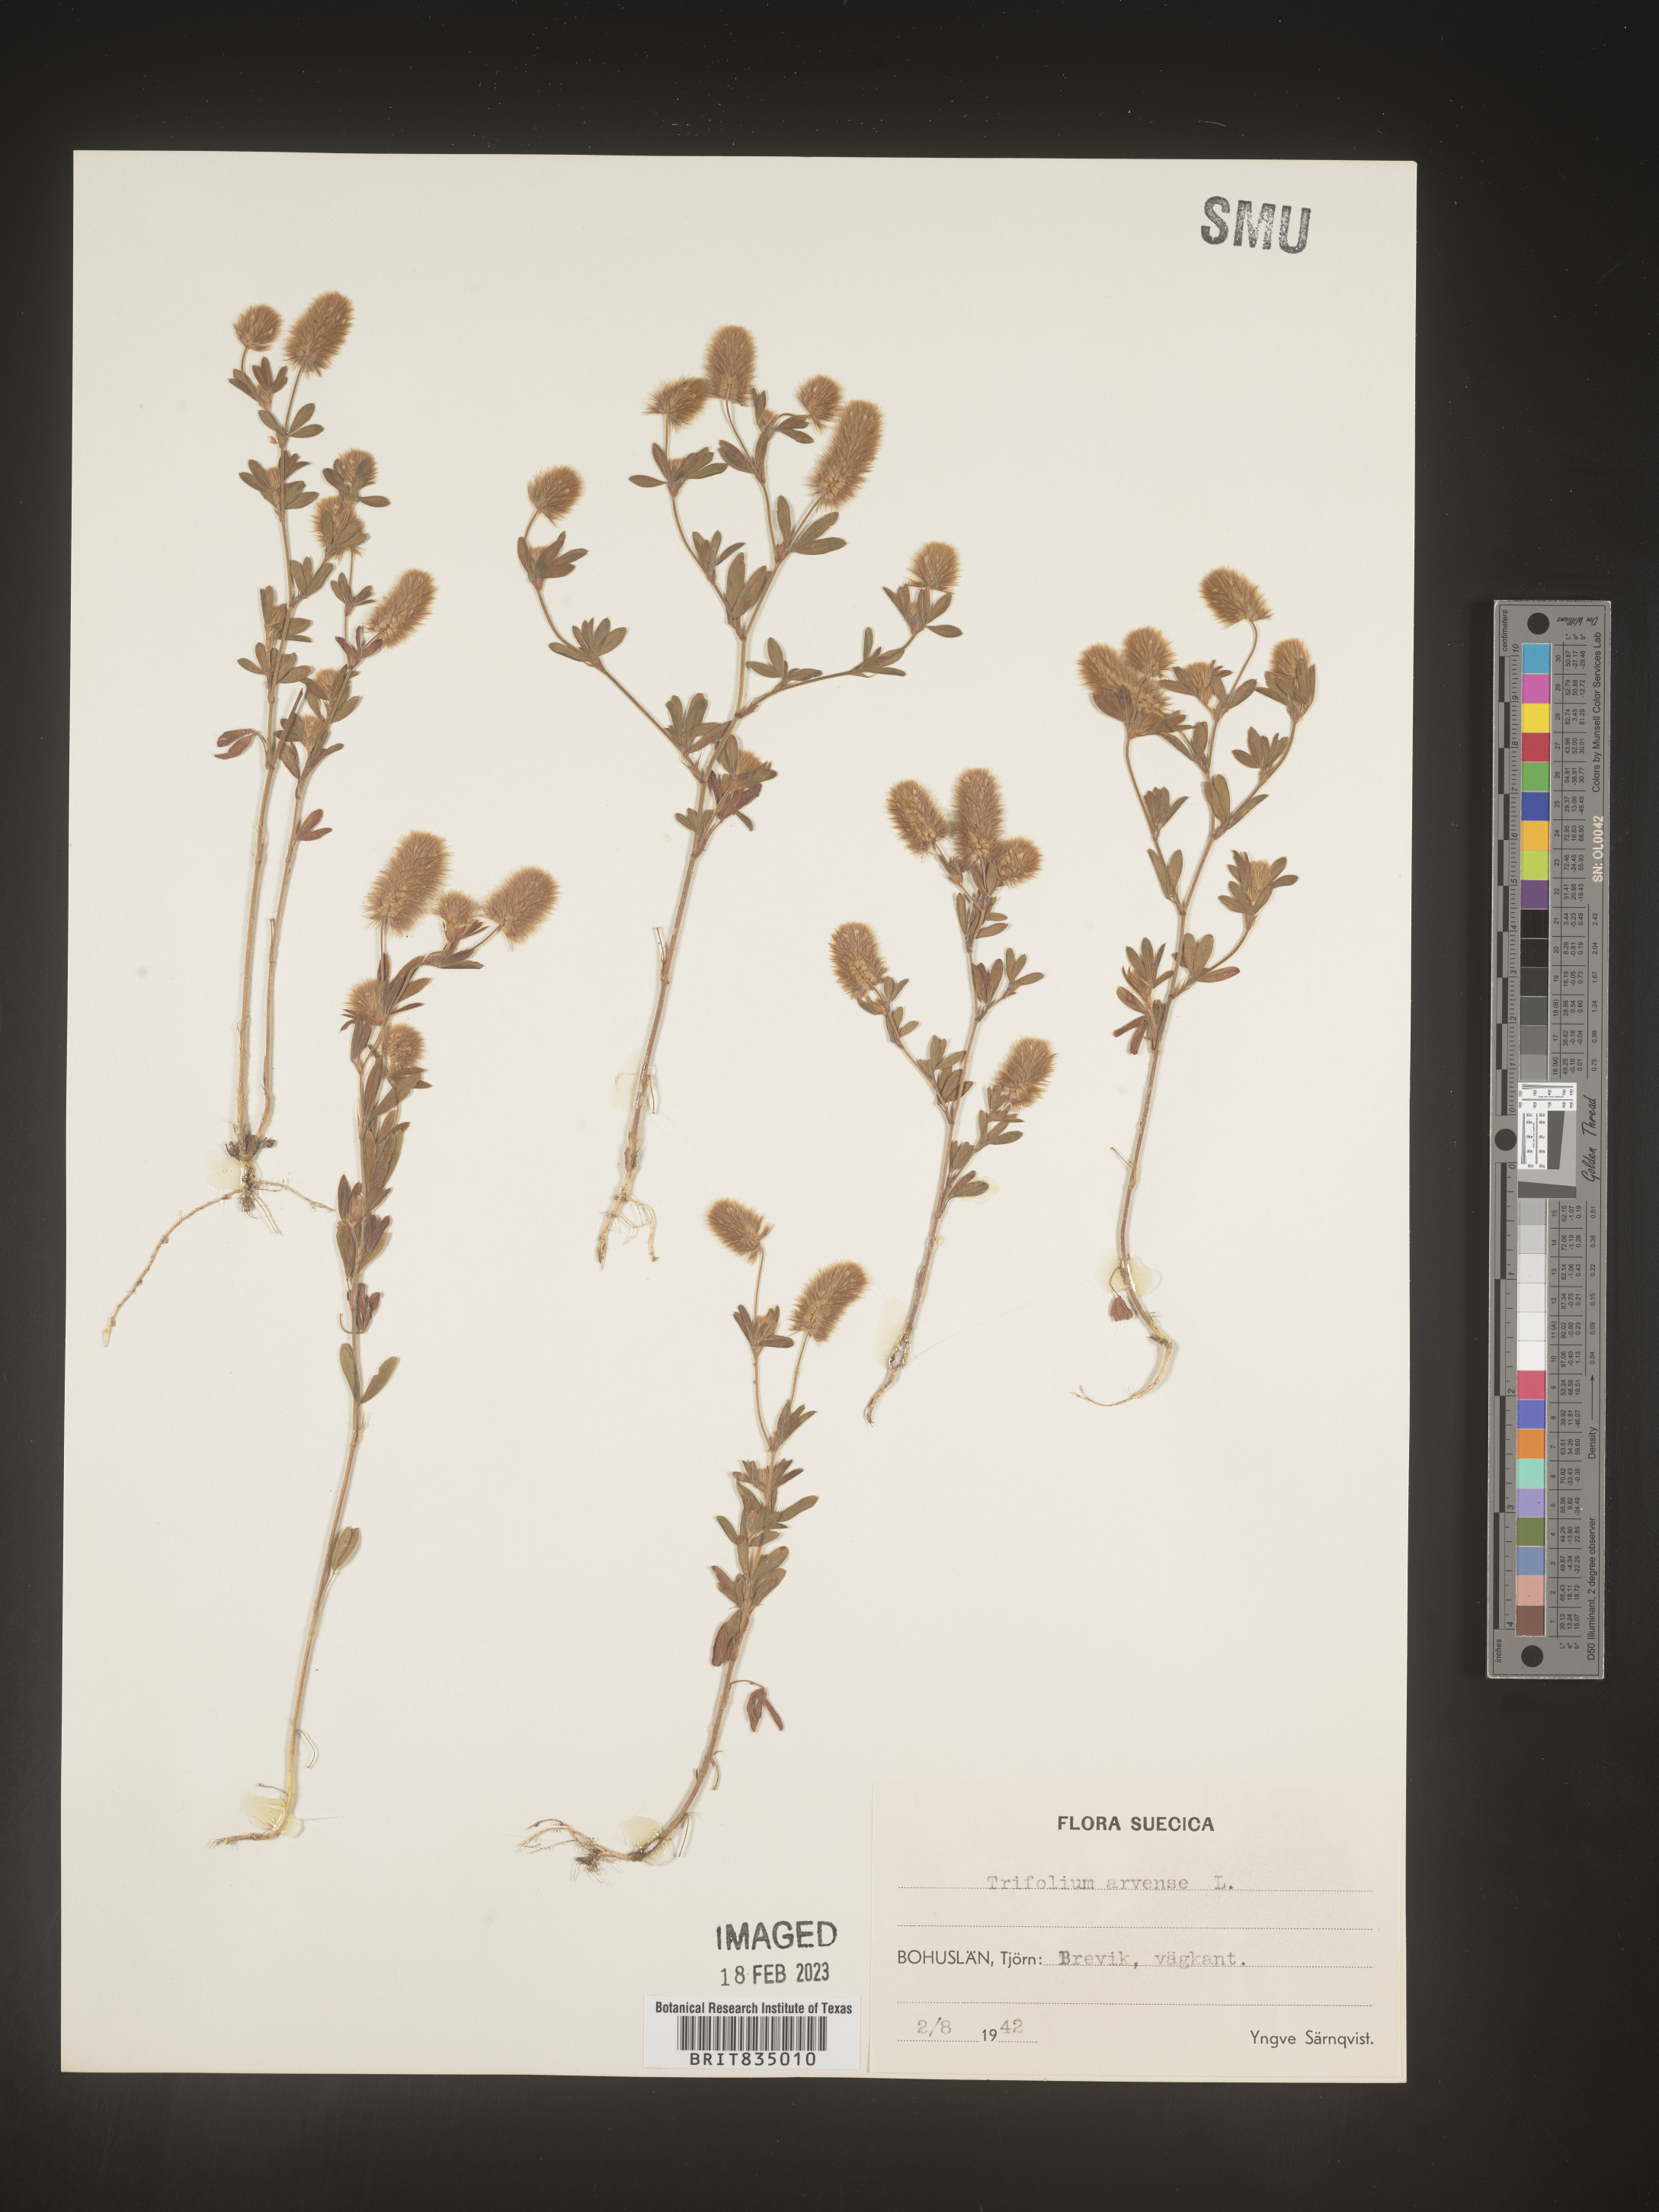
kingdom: Plantae
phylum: Tracheophyta
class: Magnoliopsida
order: Fabales
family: Fabaceae
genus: Trifolium
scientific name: Trifolium
